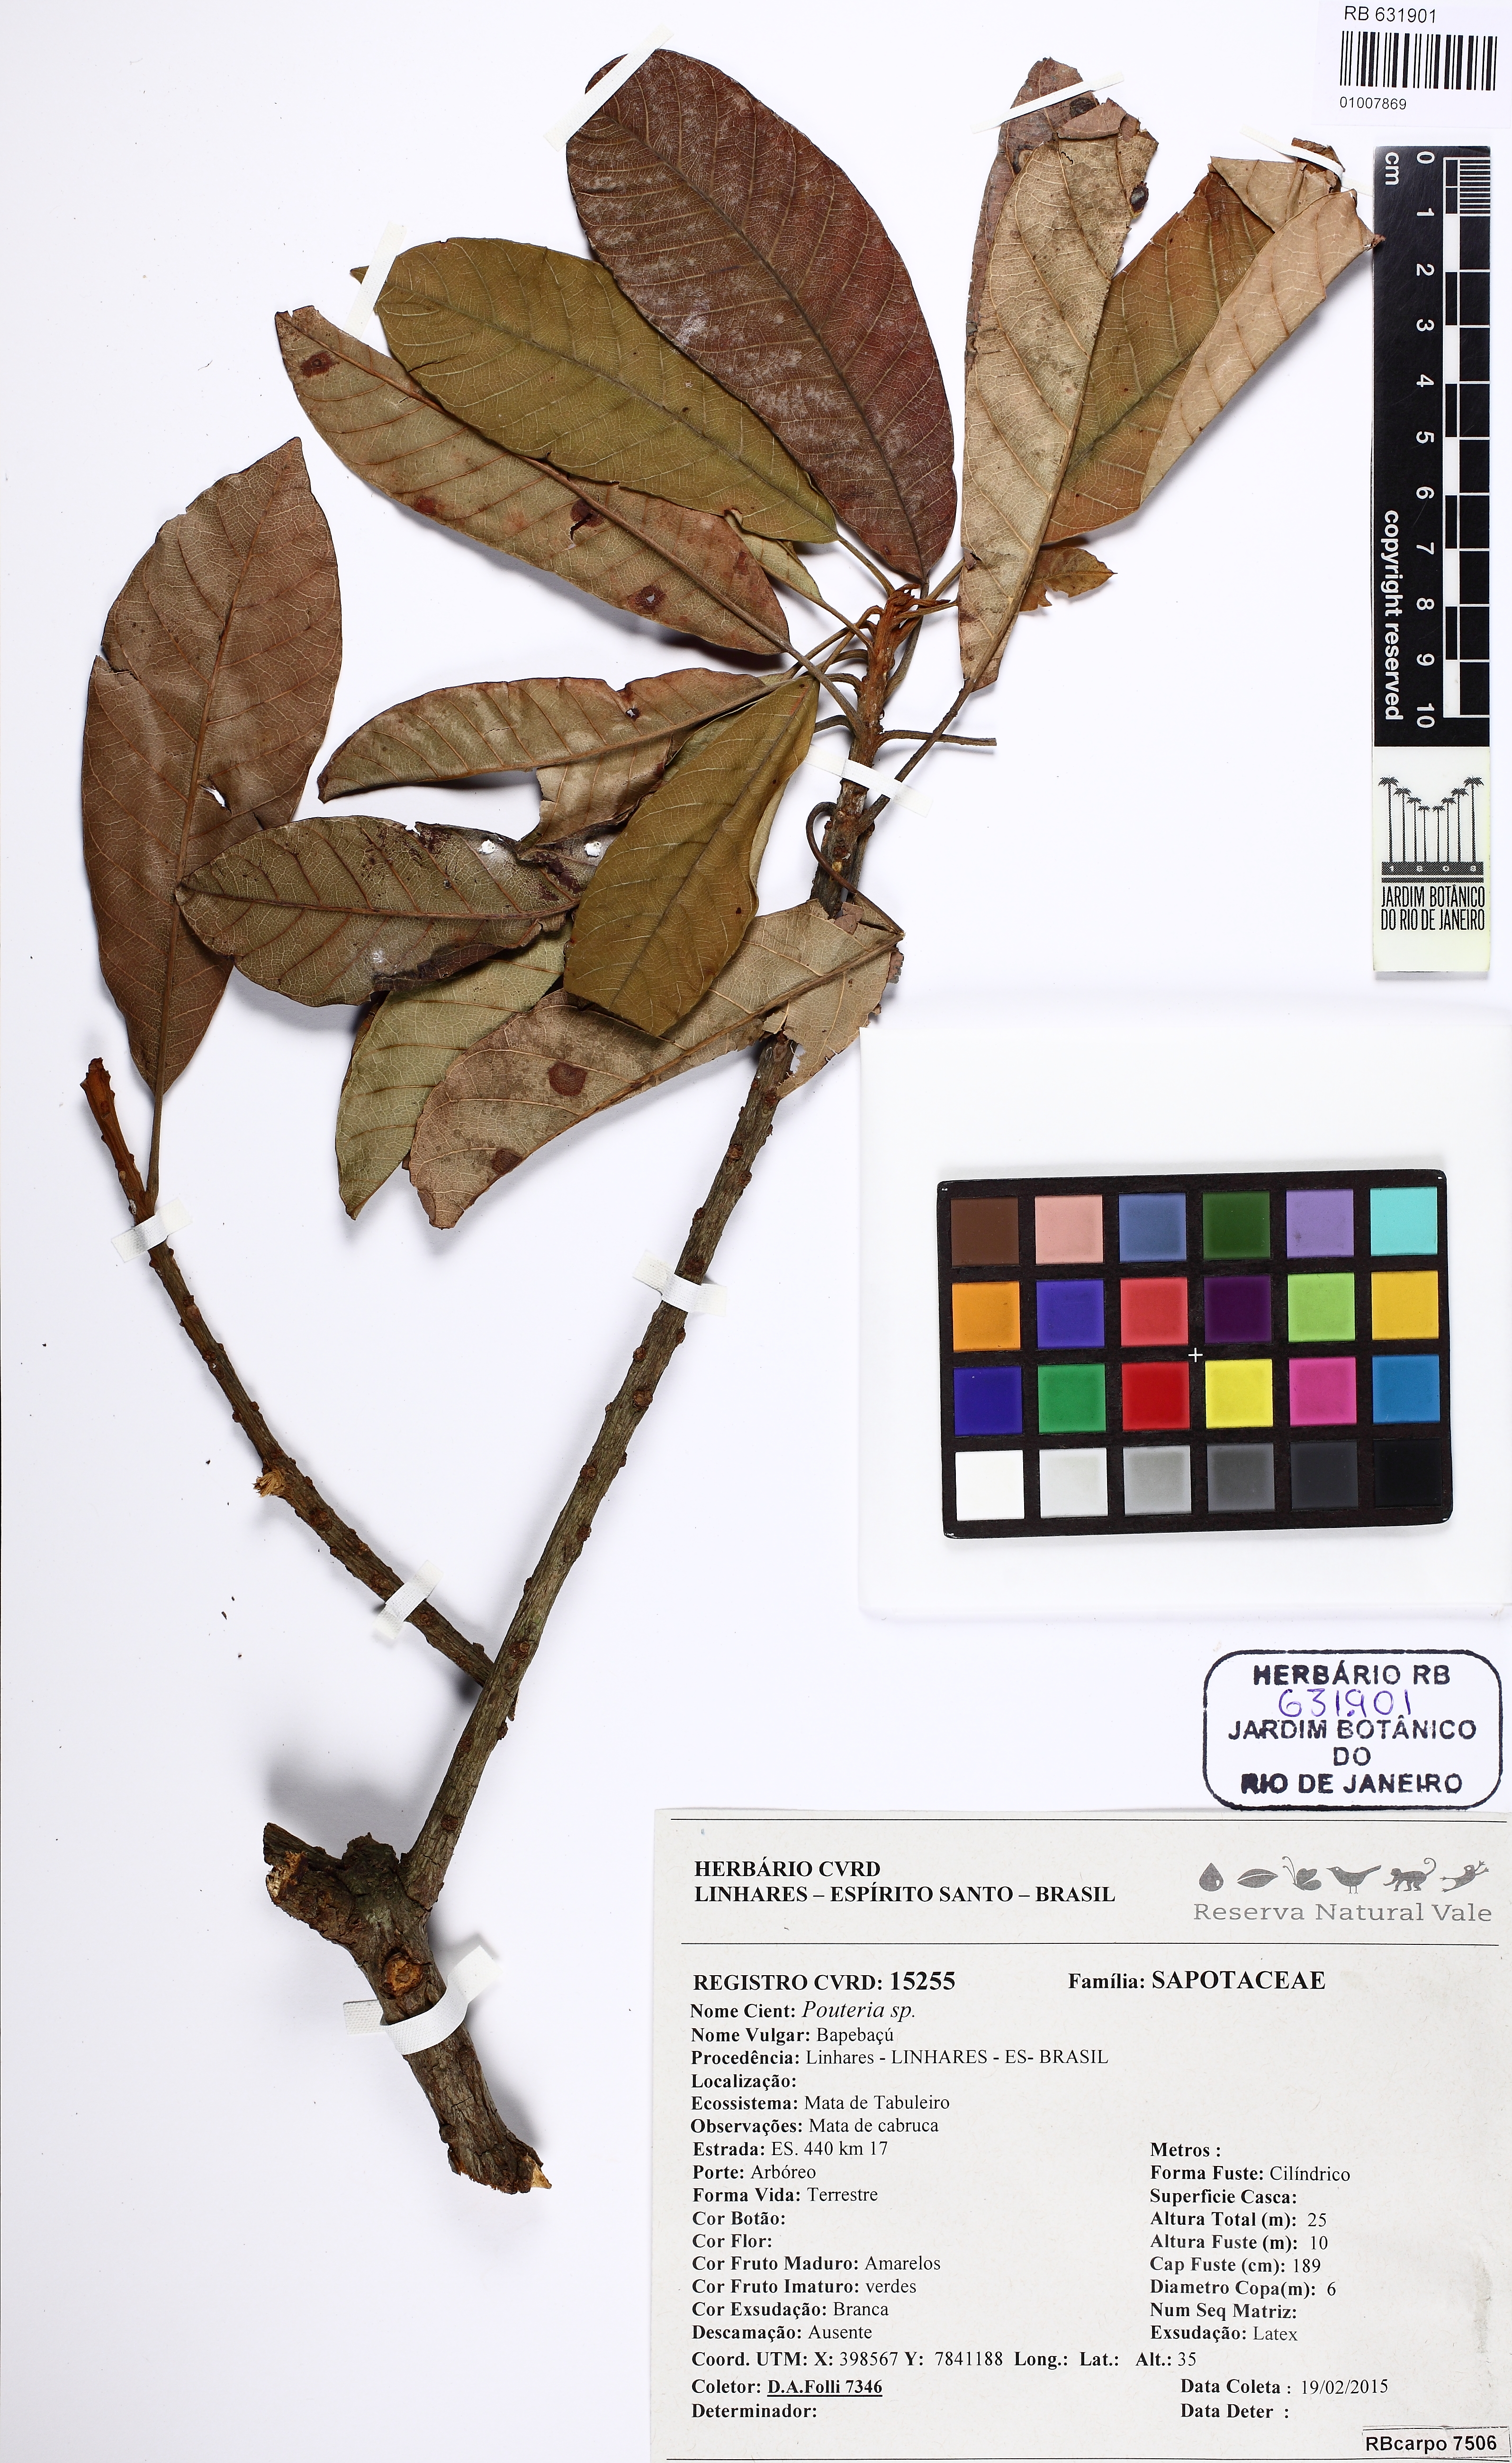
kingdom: Plantae
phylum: Tracheophyta
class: Magnoliopsida
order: Ericales
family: Sapotaceae
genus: Pouteria
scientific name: Pouteria butyrocarpa
